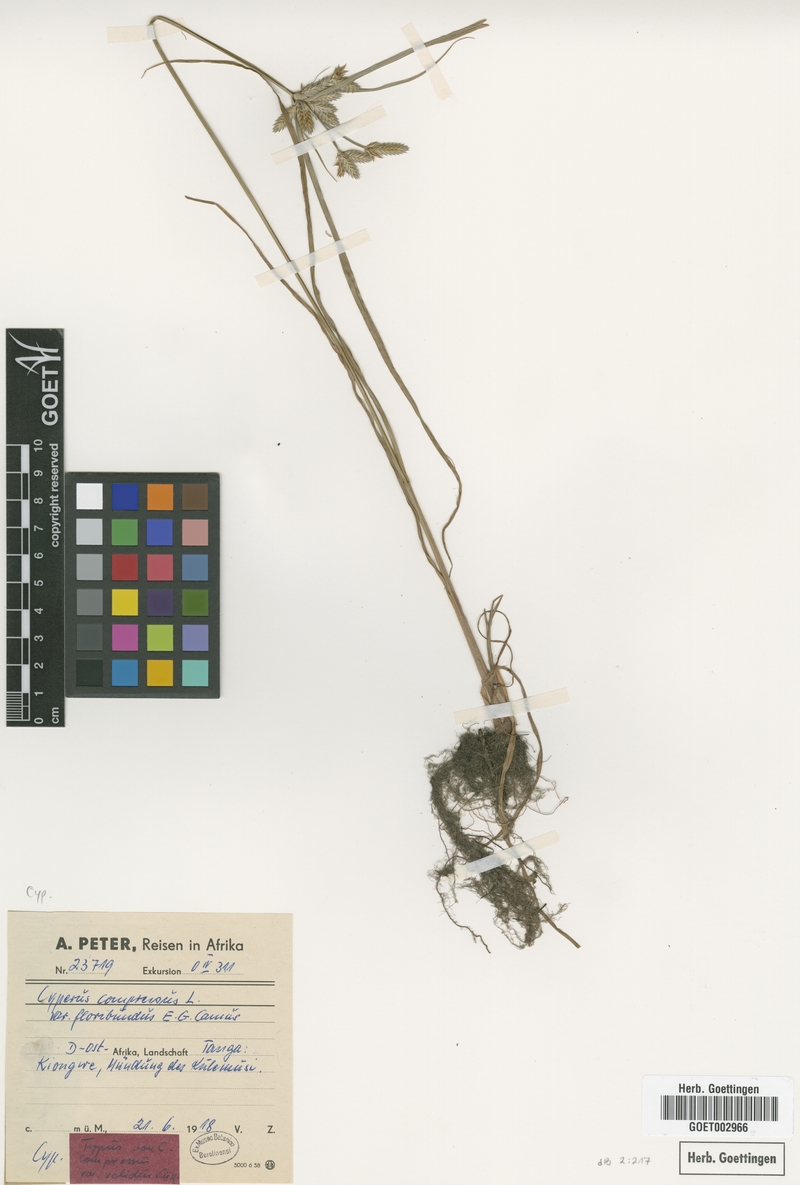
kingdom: Plantae
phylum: Tracheophyta
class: Liliopsida
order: Poales
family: Cyperaceae
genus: Cyperus
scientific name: Cyperus compressus
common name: Poorland flatsedge
